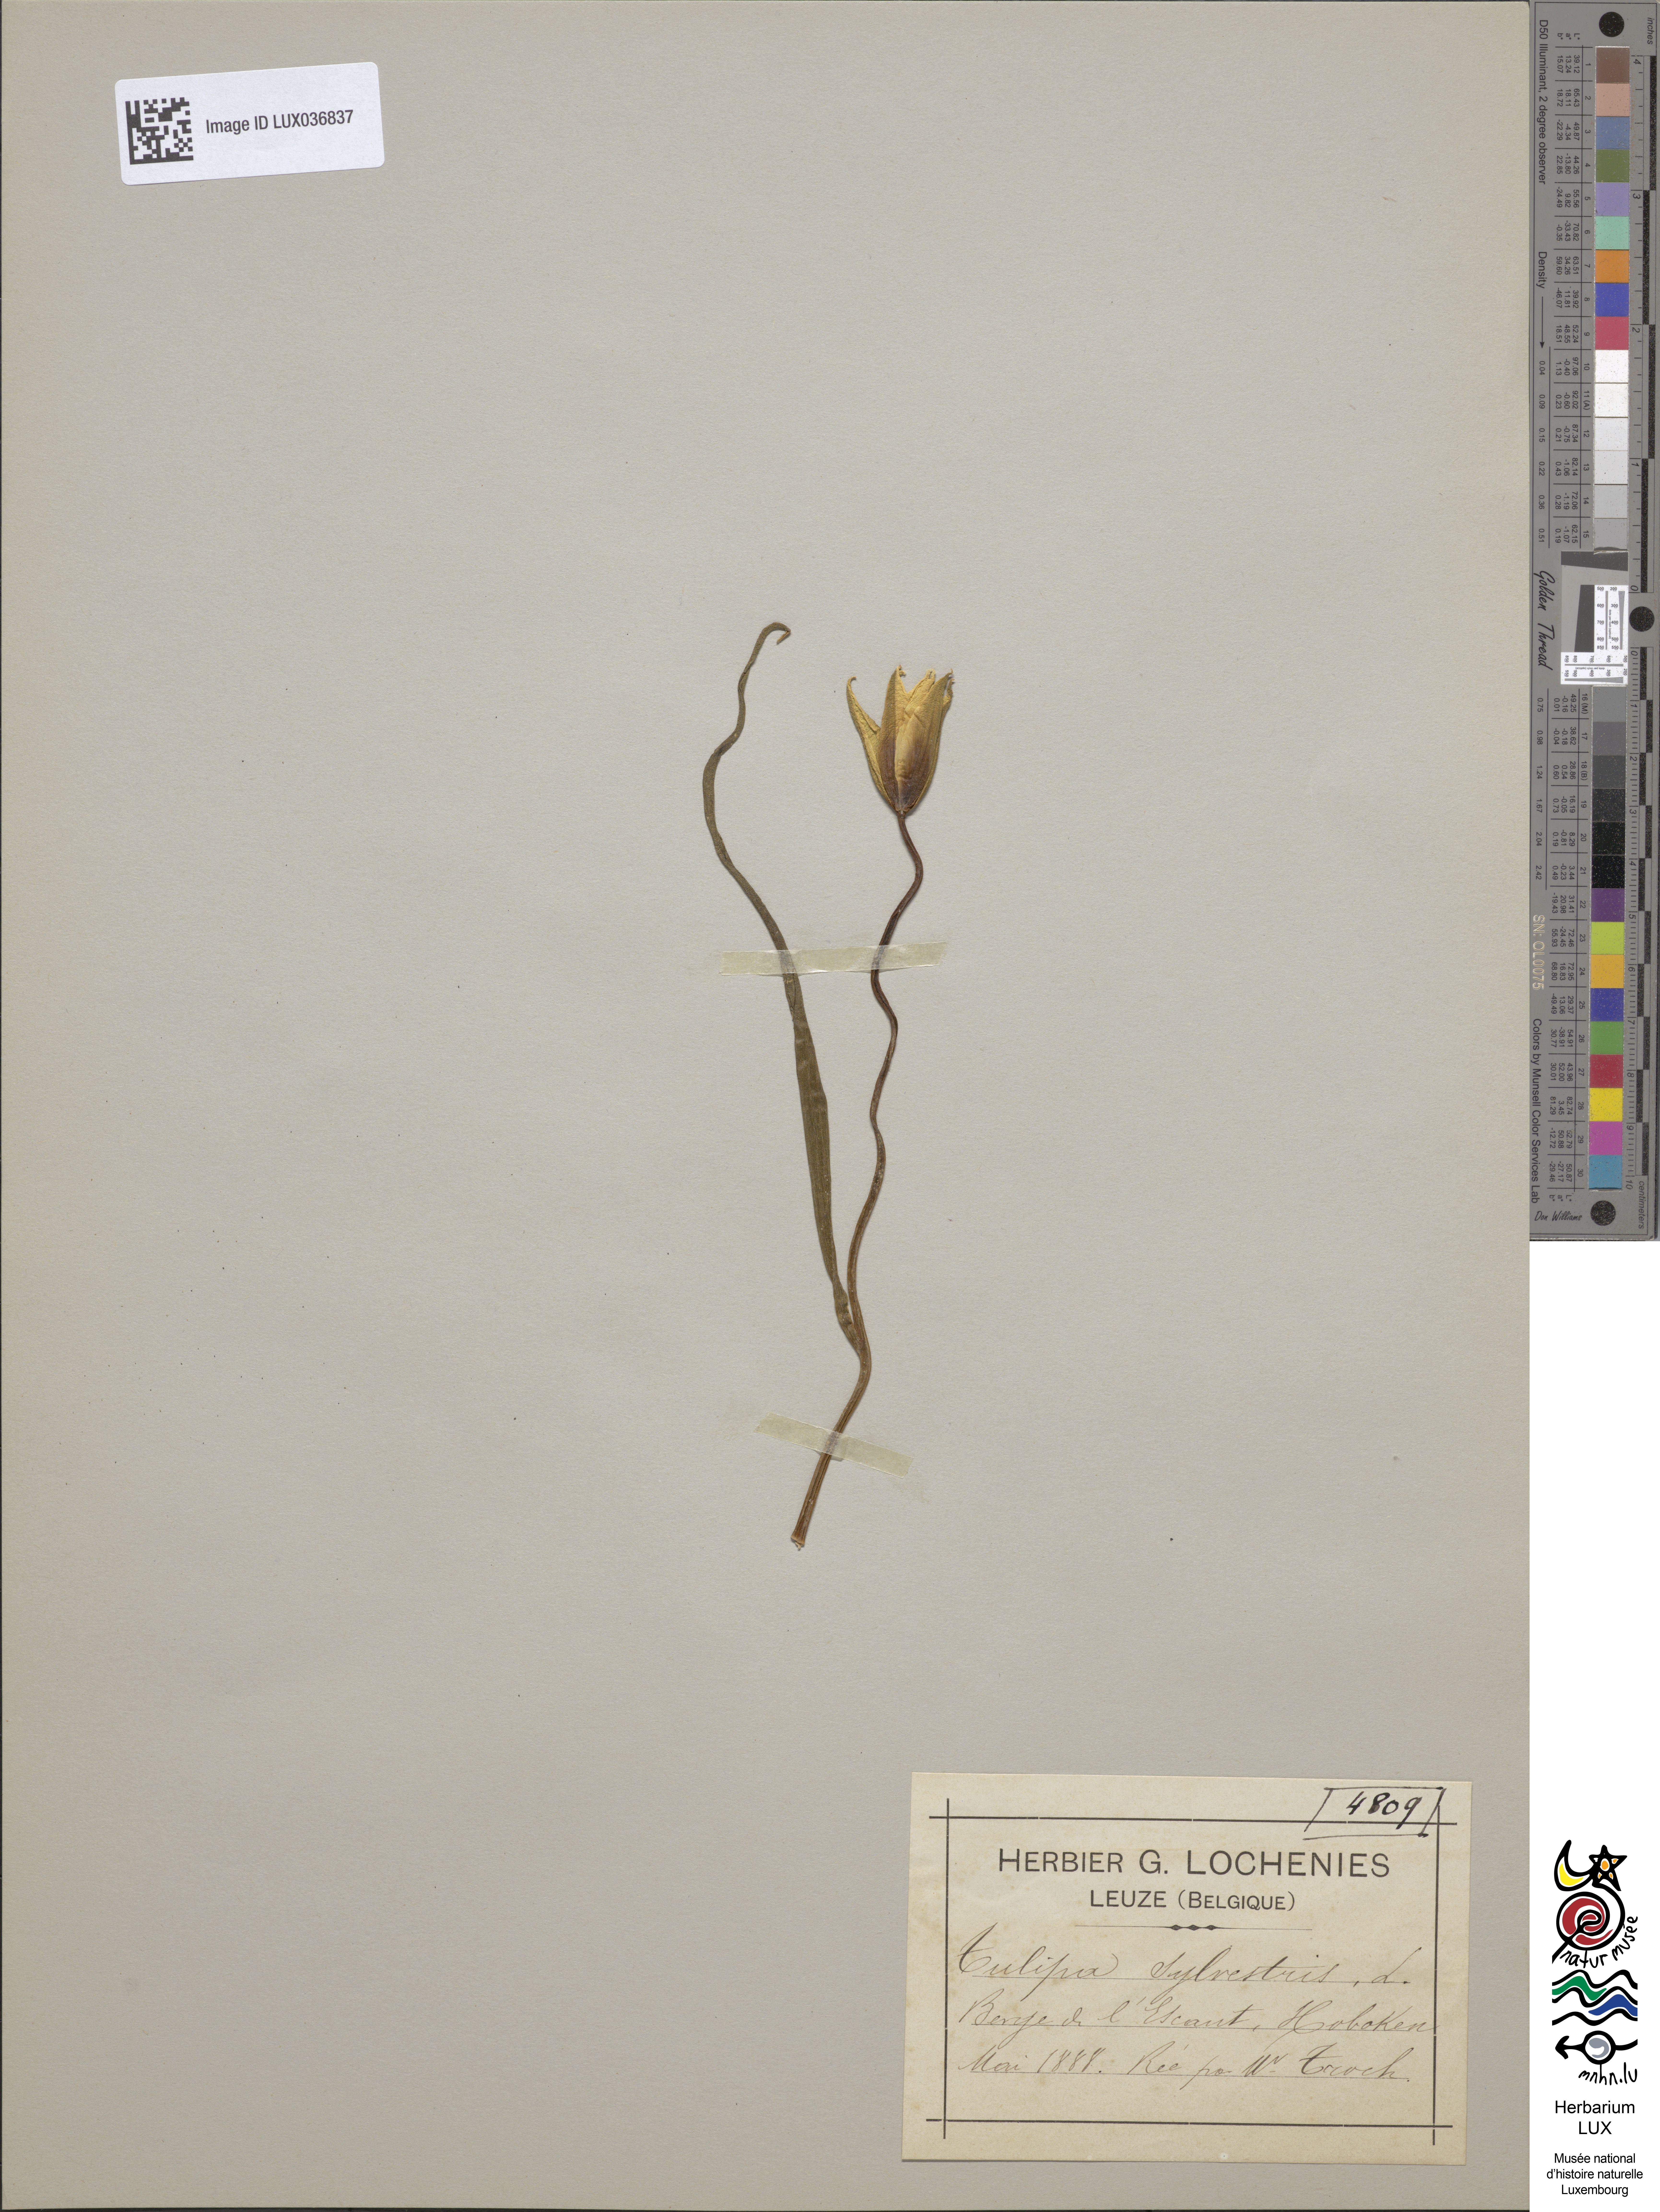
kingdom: Plantae
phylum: Tracheophyta
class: Liliopsida
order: Liliales
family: Liliaceae
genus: Tulipa
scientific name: Tulipa sylvestris
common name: Wild tulip
